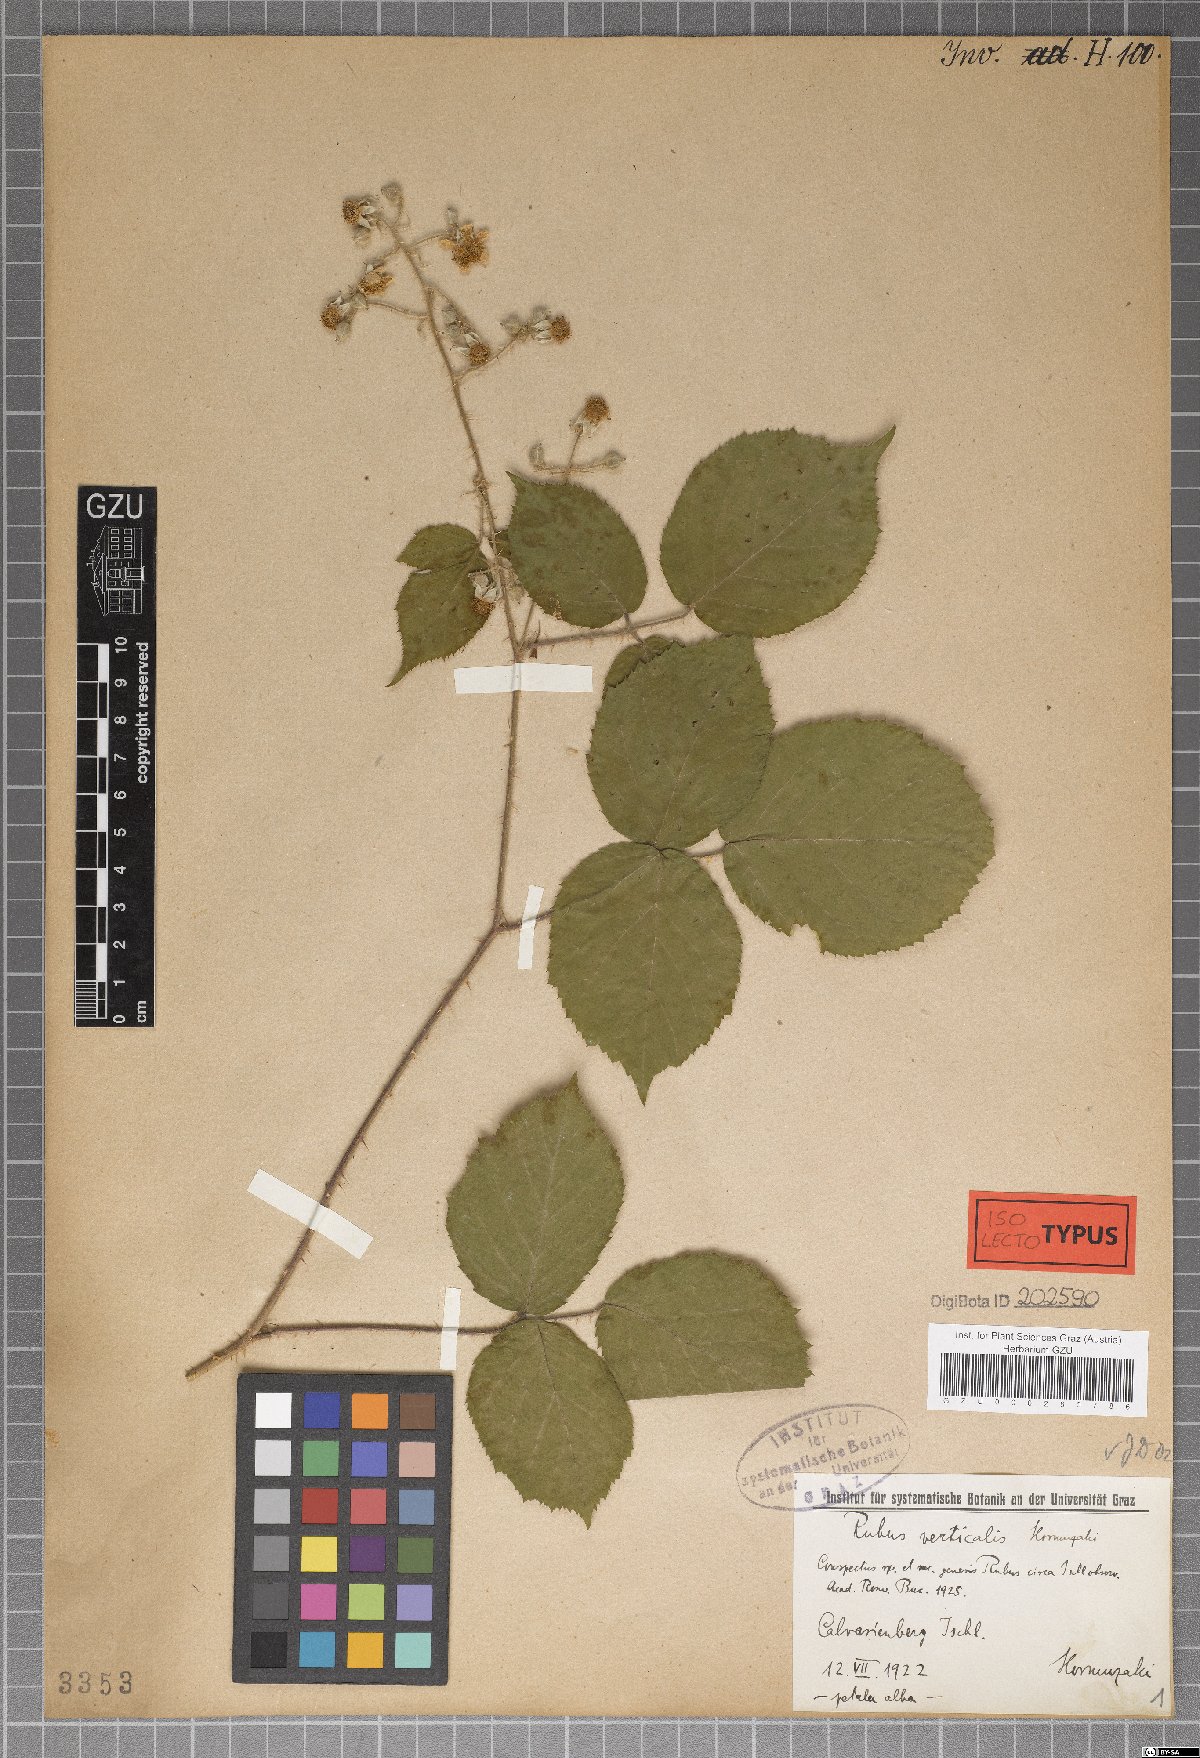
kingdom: Plantae
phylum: Tracheophyta
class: Magnoliopsida
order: Rosales
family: Rosaceae
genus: Rubus
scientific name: Rubus verticalis
